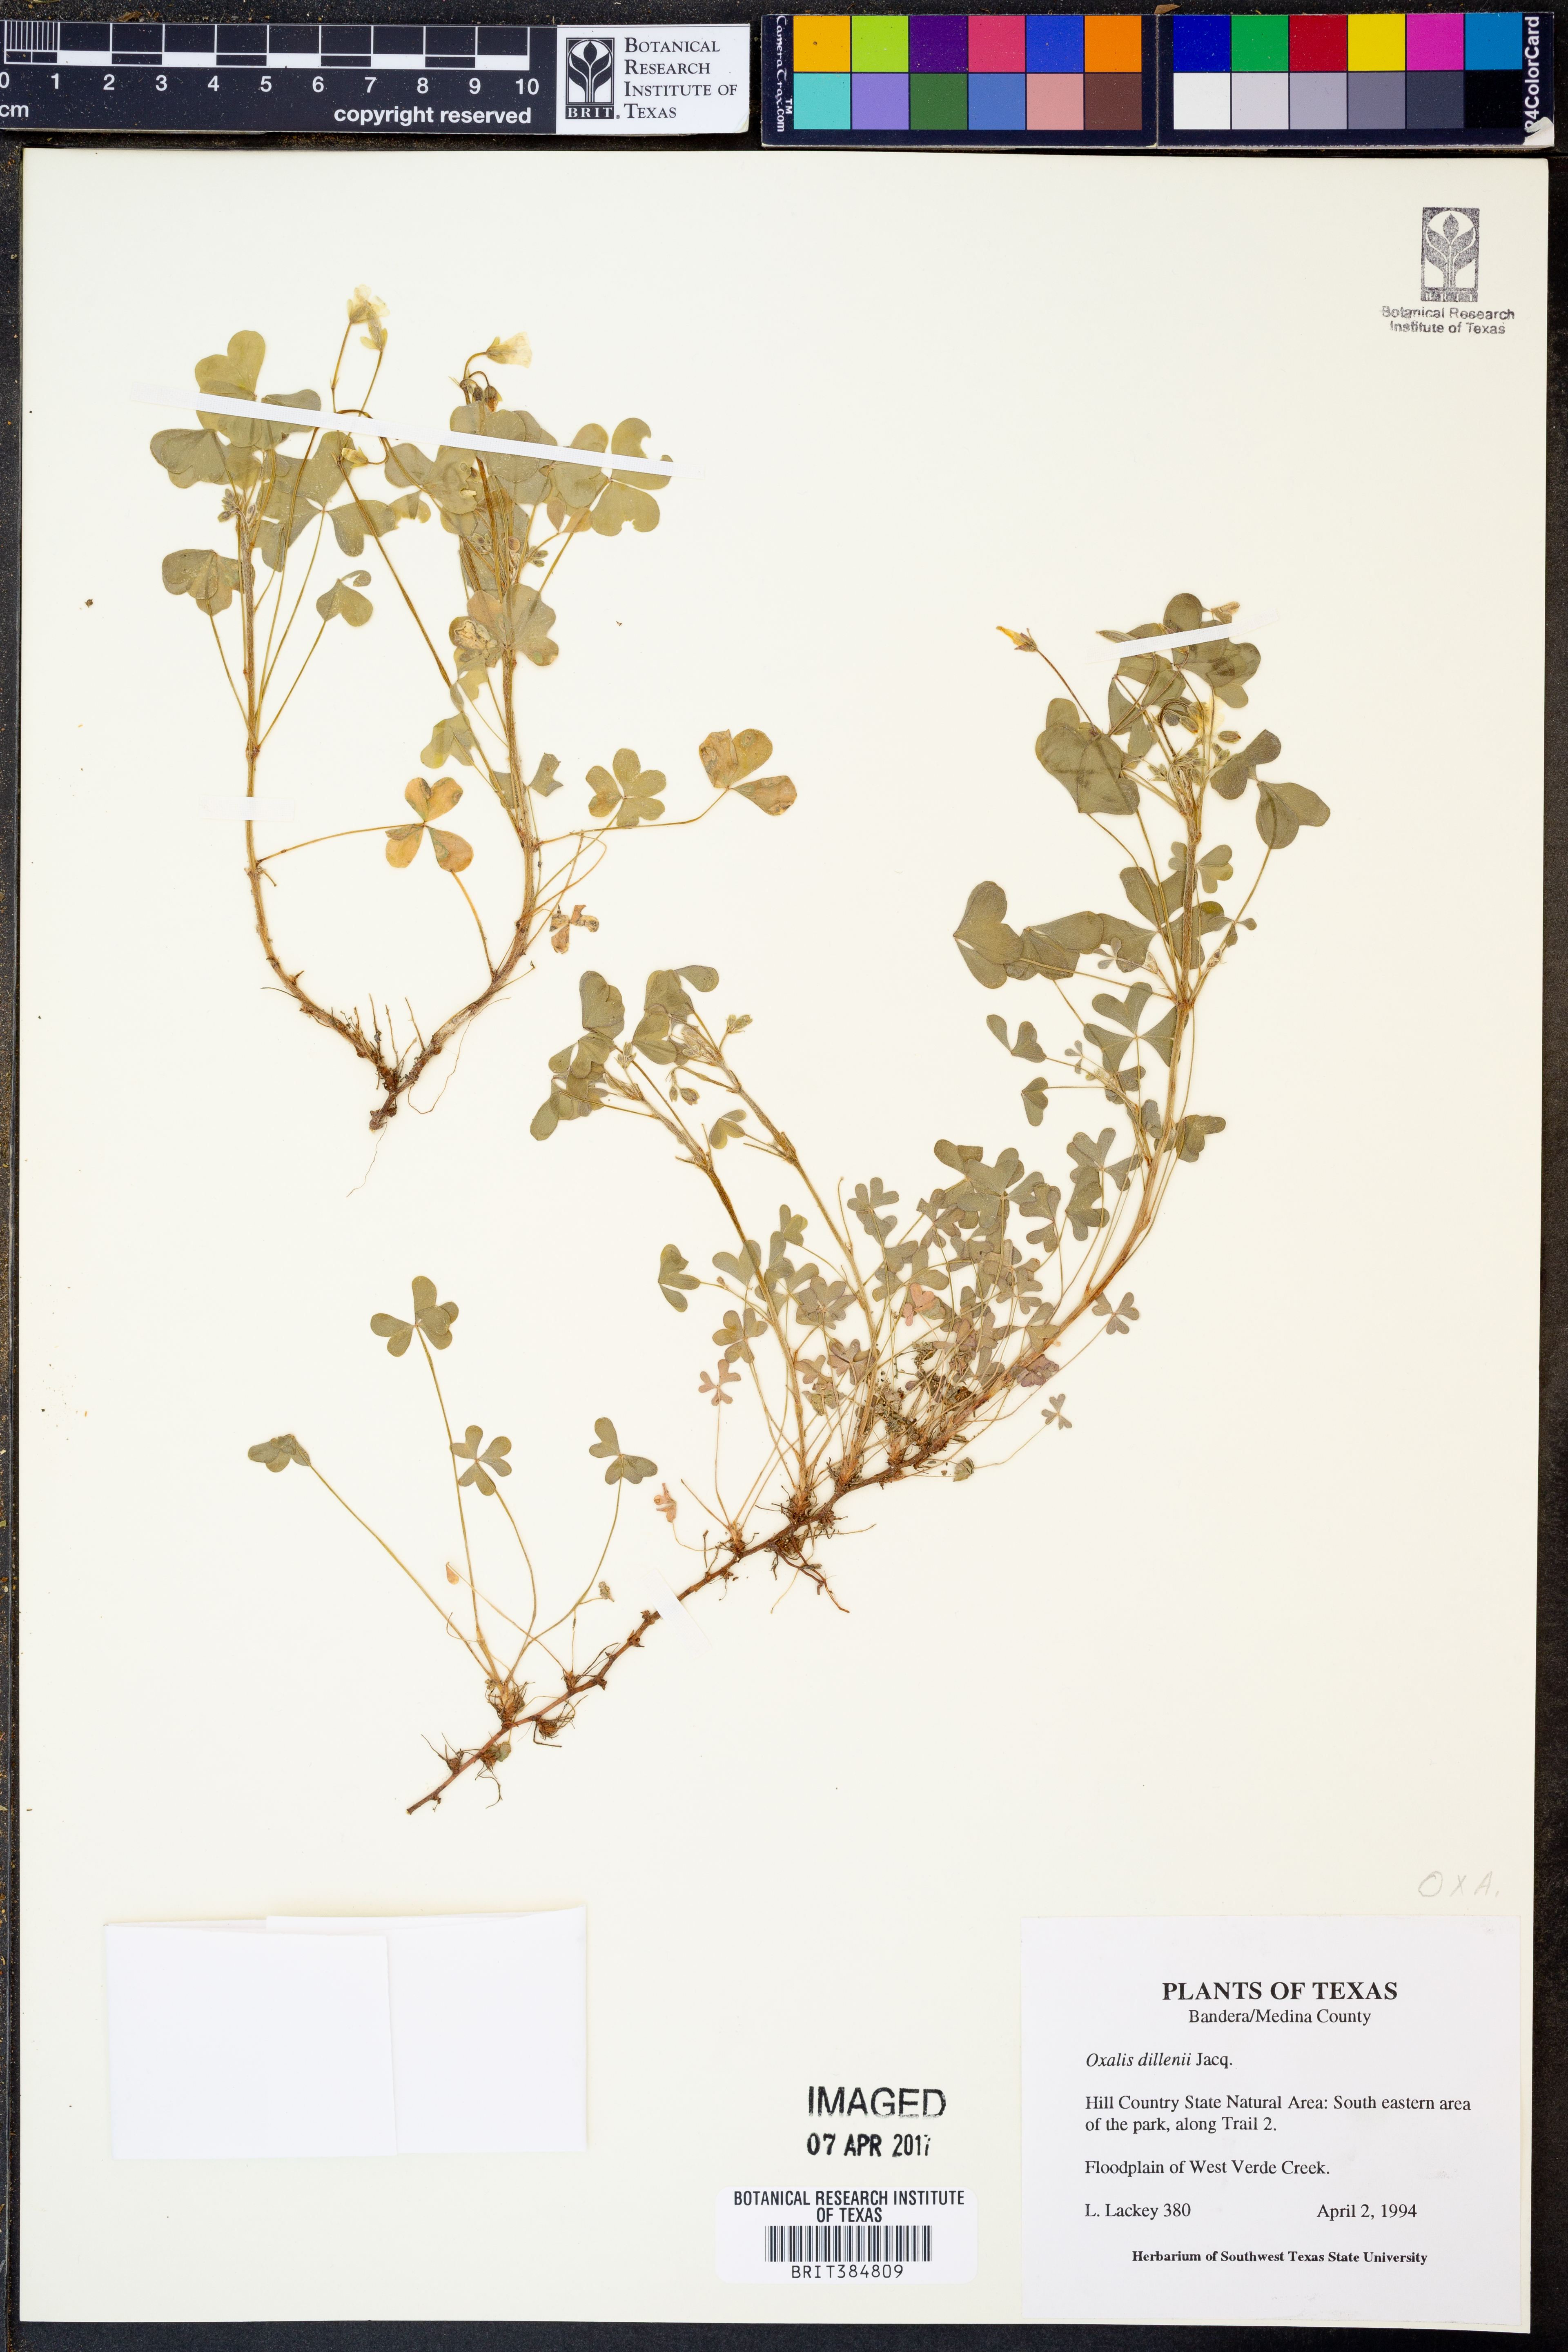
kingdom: Plantae
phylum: Tracheophyta
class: Magnoliopsida
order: Oxalidales
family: Oxalidaceae
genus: Oxalis
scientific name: Oxalis dillenii
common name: Sussex yellow-sorrel
